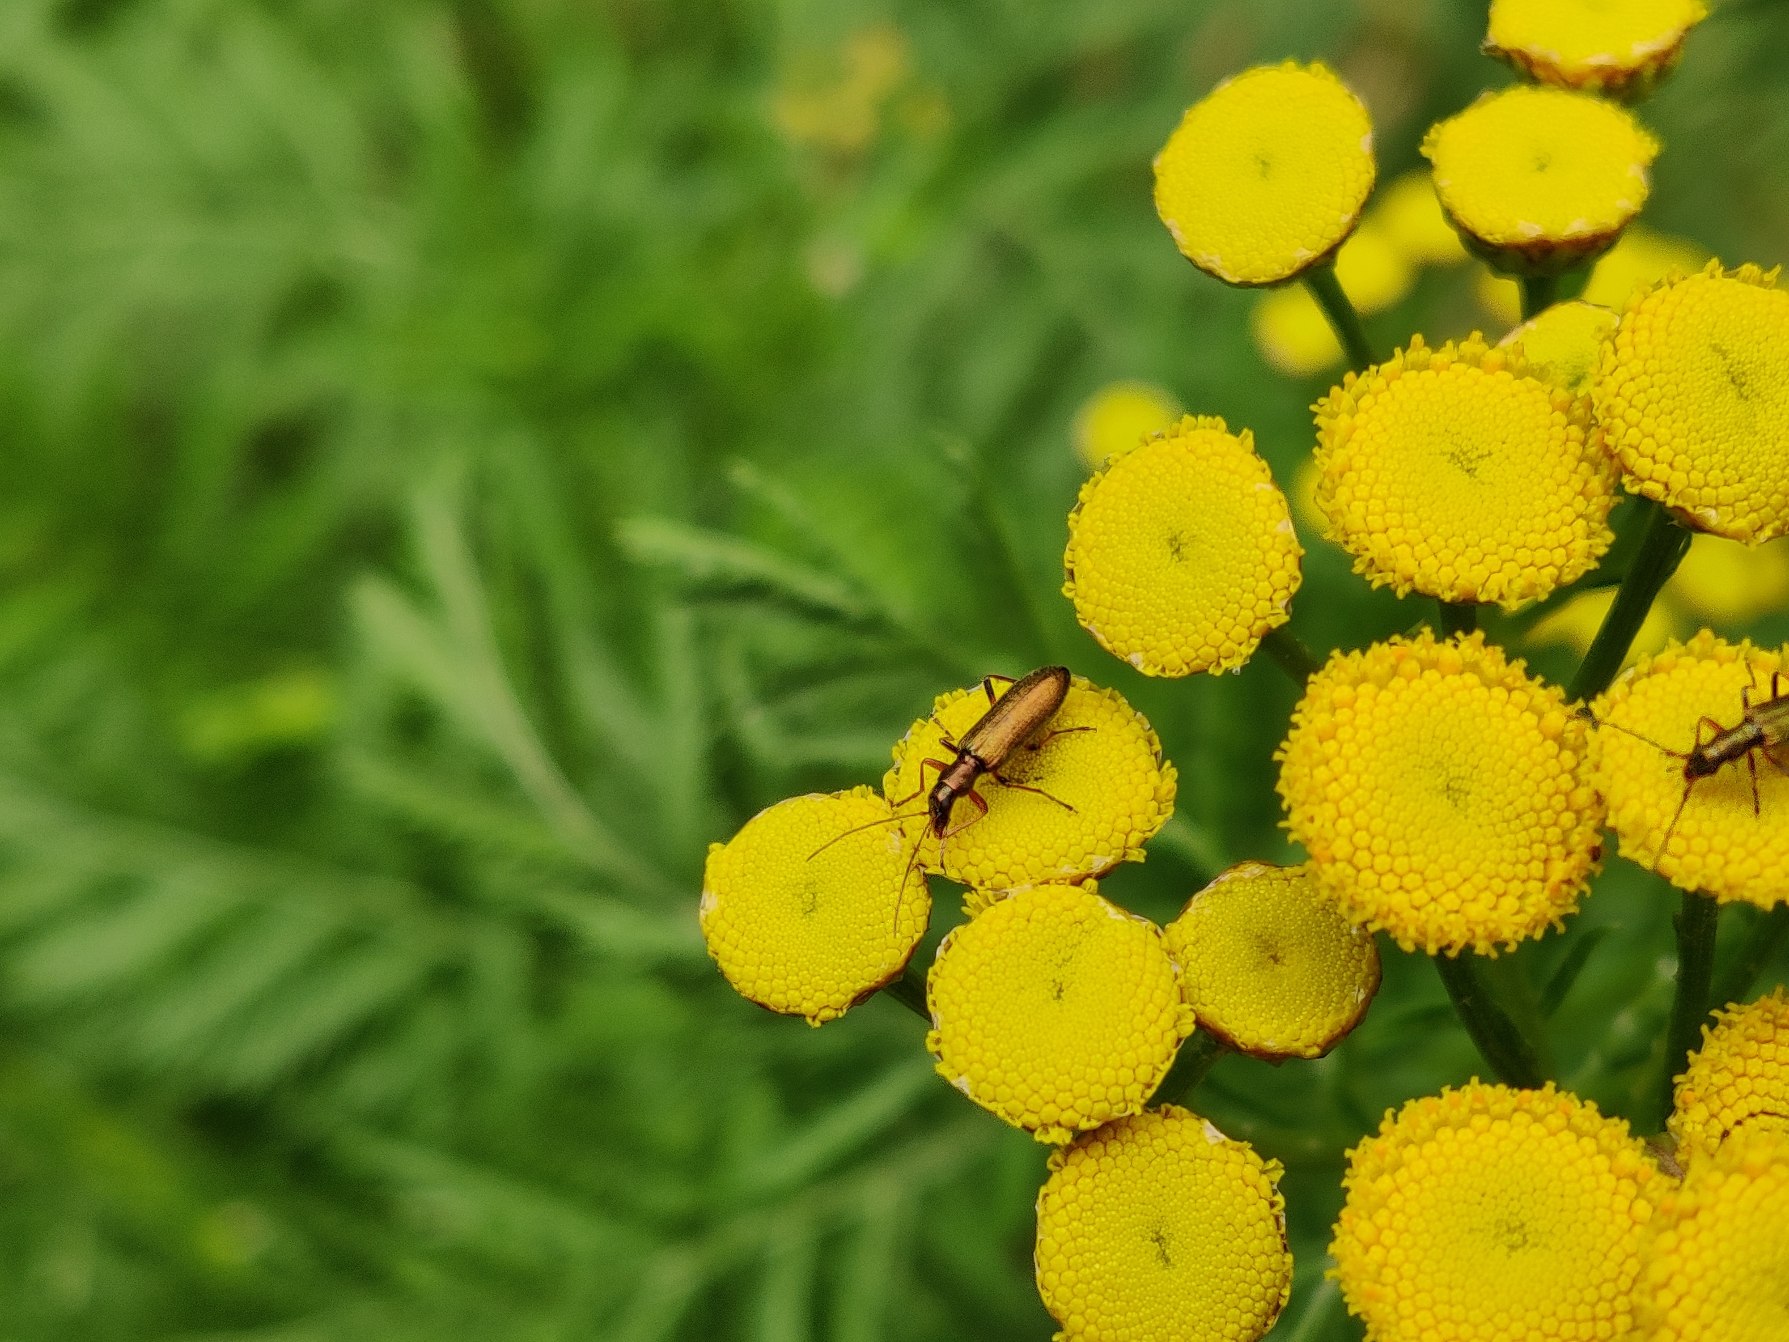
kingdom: Animalia
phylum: Arthropoda
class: Insecta
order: Coleoptera
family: Oedemeridae
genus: Chrysanthia
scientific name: Chrysanthia geniculata
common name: Grøn solbille
